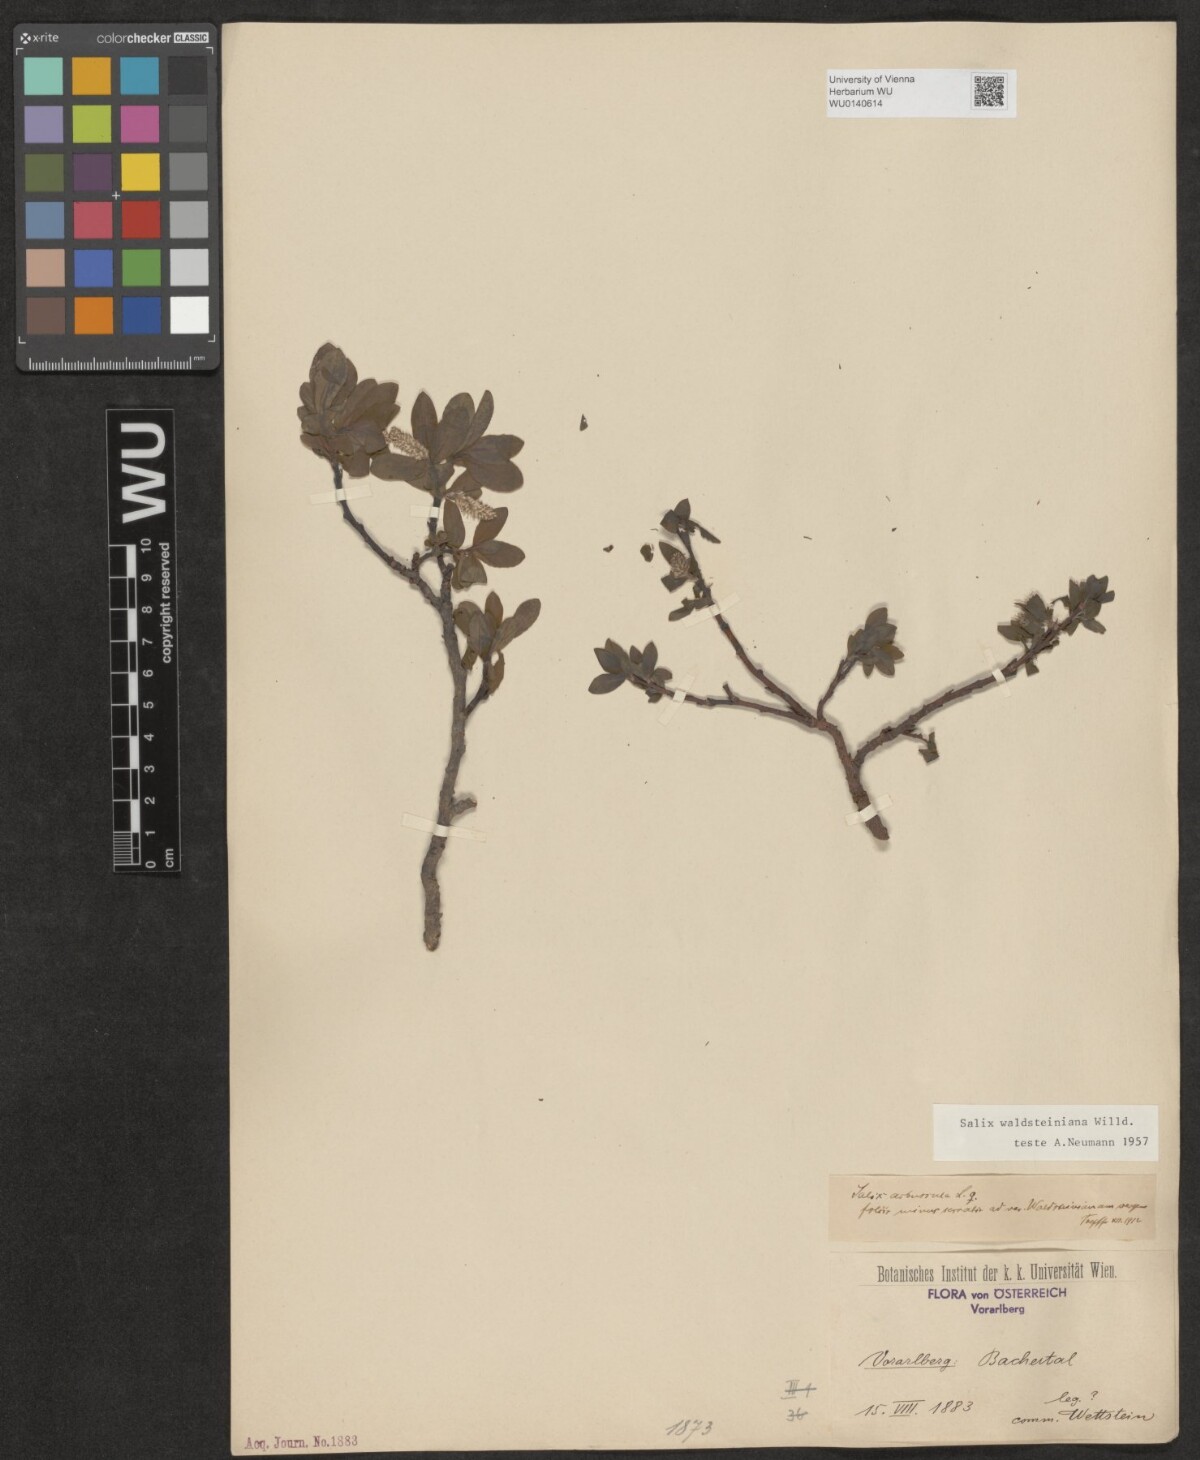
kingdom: Plantae
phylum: Tracheophyta
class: Magnoliopsida
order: Malpighiales
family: Salicaceae
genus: Salix
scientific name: Salix waldsteiniana
